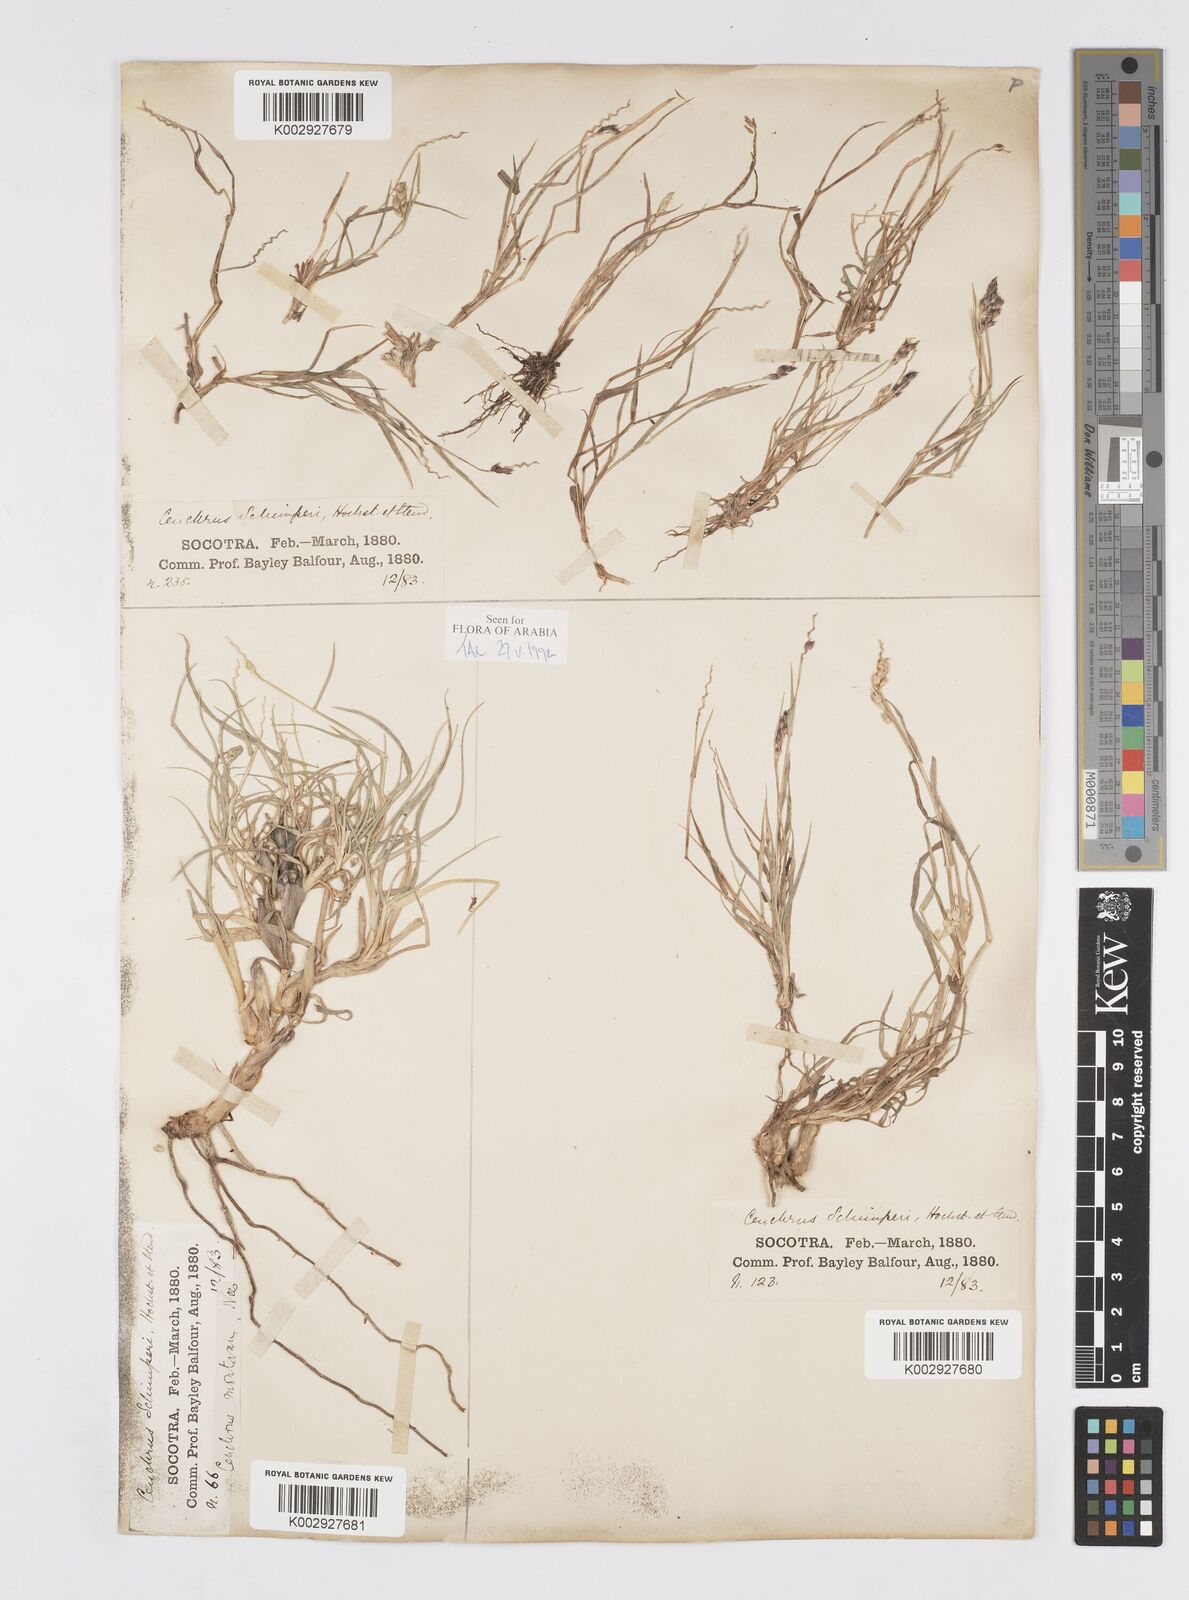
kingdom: Plantae
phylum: Tracheophyta
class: Liliopsida
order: Poales
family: Poaceae
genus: Cenchrus
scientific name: Cenchrus setigerus
